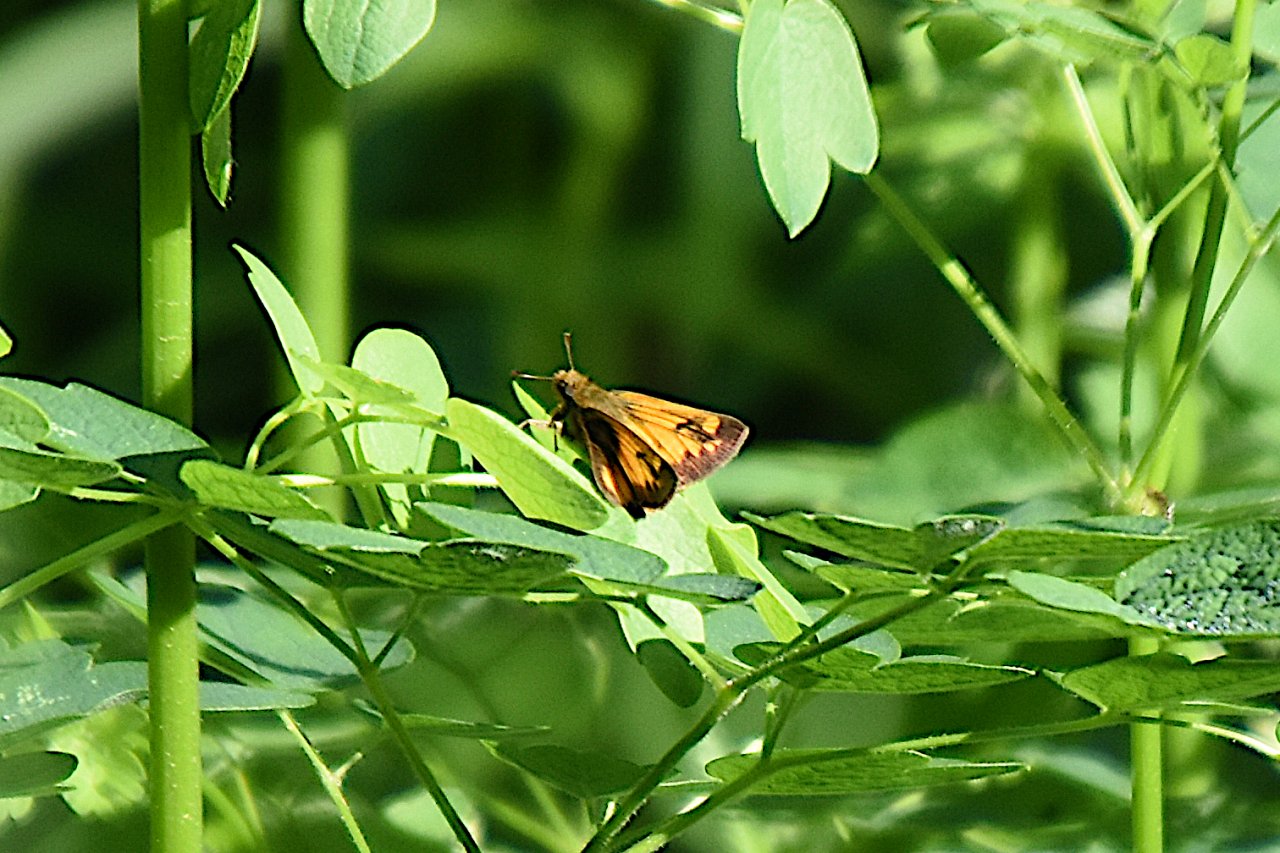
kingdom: Animalia
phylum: Arthropoda
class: Insecta
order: Lepidoptera
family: Hesperiidae
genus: Lon
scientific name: Lon zabulon
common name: Zabulon Skipper
